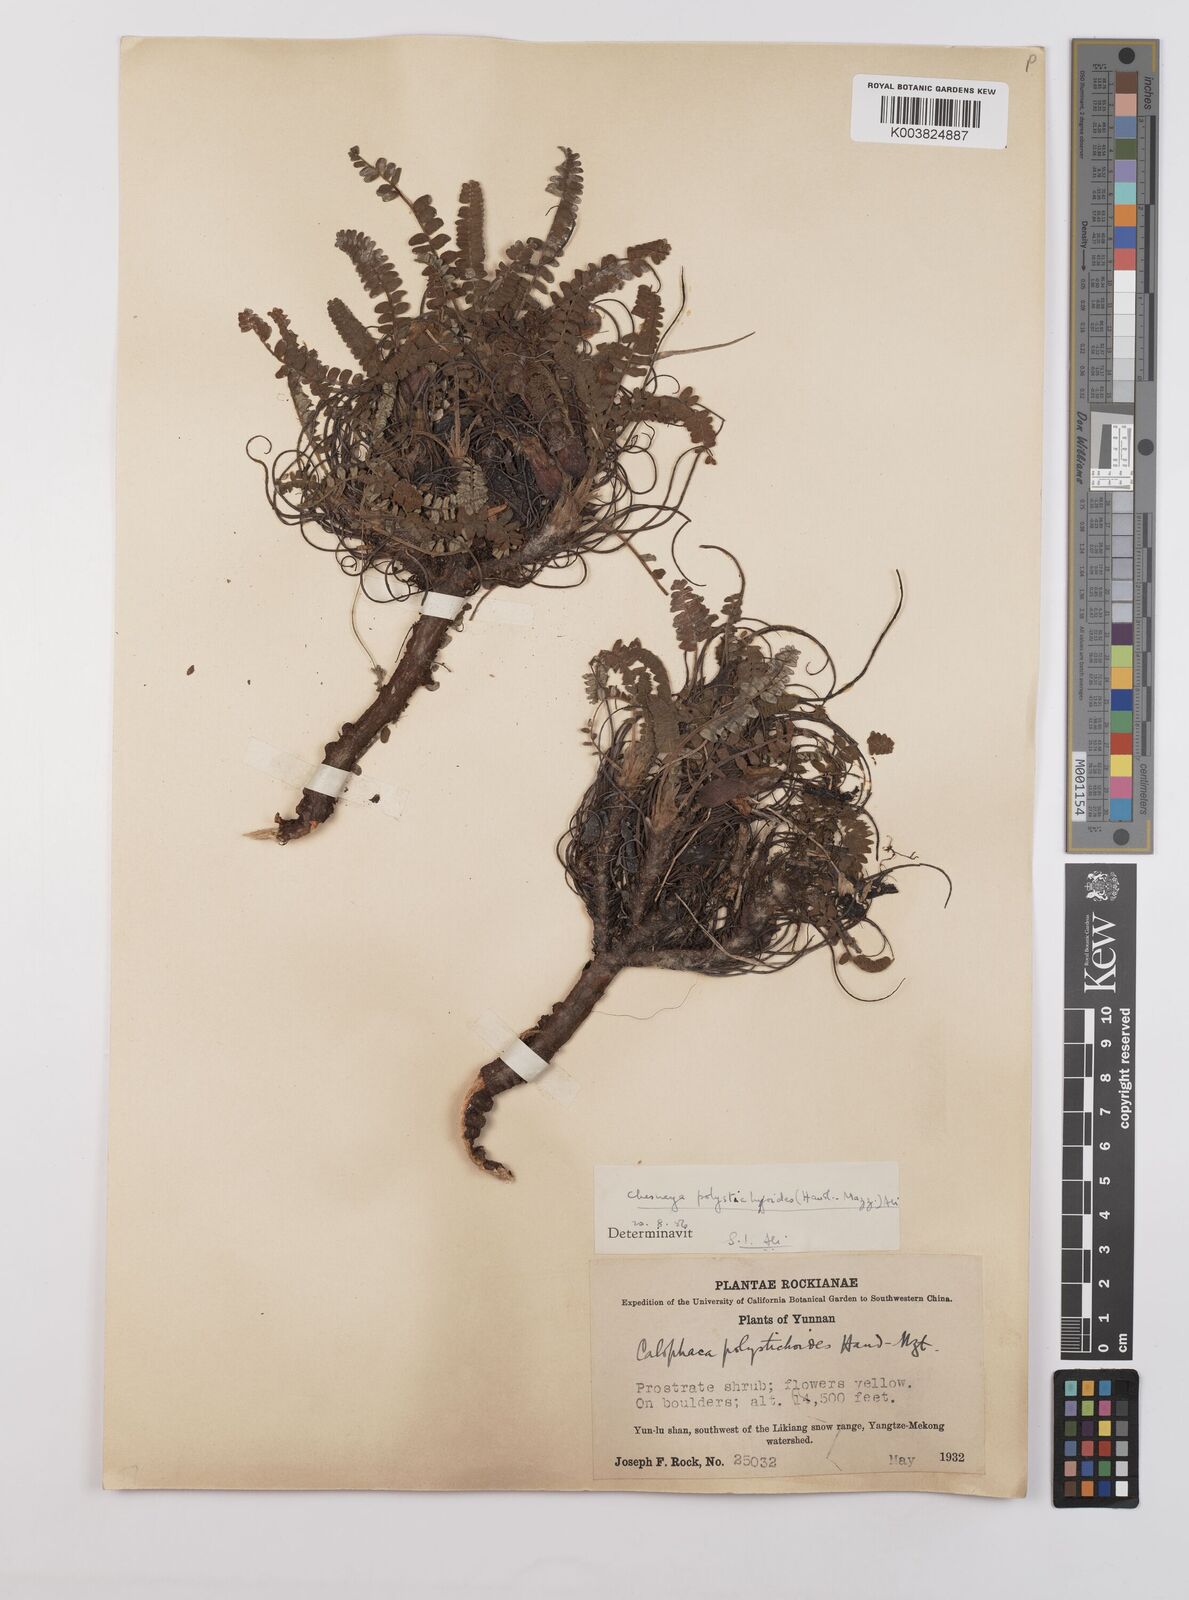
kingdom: Plantae
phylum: Tracheophyta
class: Magnoliopsida
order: Fabales
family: Fabaceae
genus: Chesneya
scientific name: Chesneya polystichoides
